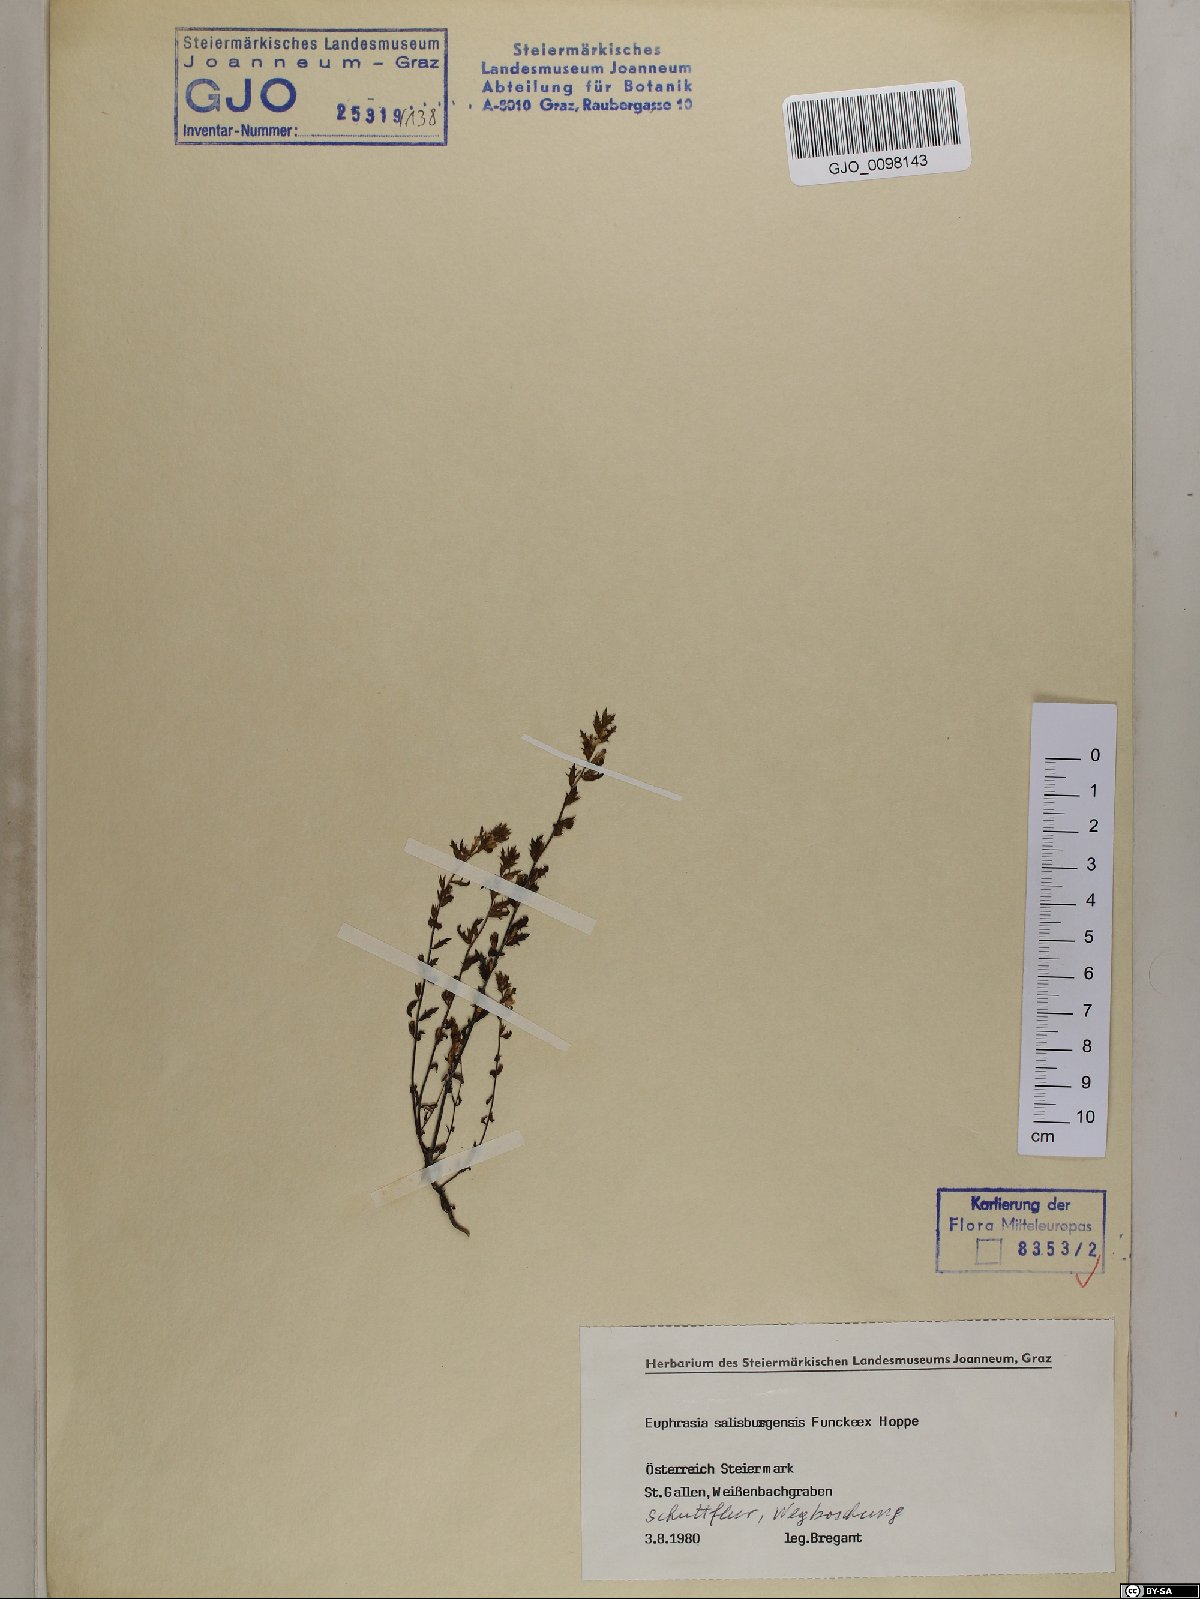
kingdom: Plantae
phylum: Tracheophyta
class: Magnoliopsida
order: Lamiales
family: Orobanchaceae
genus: Euphrasia
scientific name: Euphrasia salisburgensis
